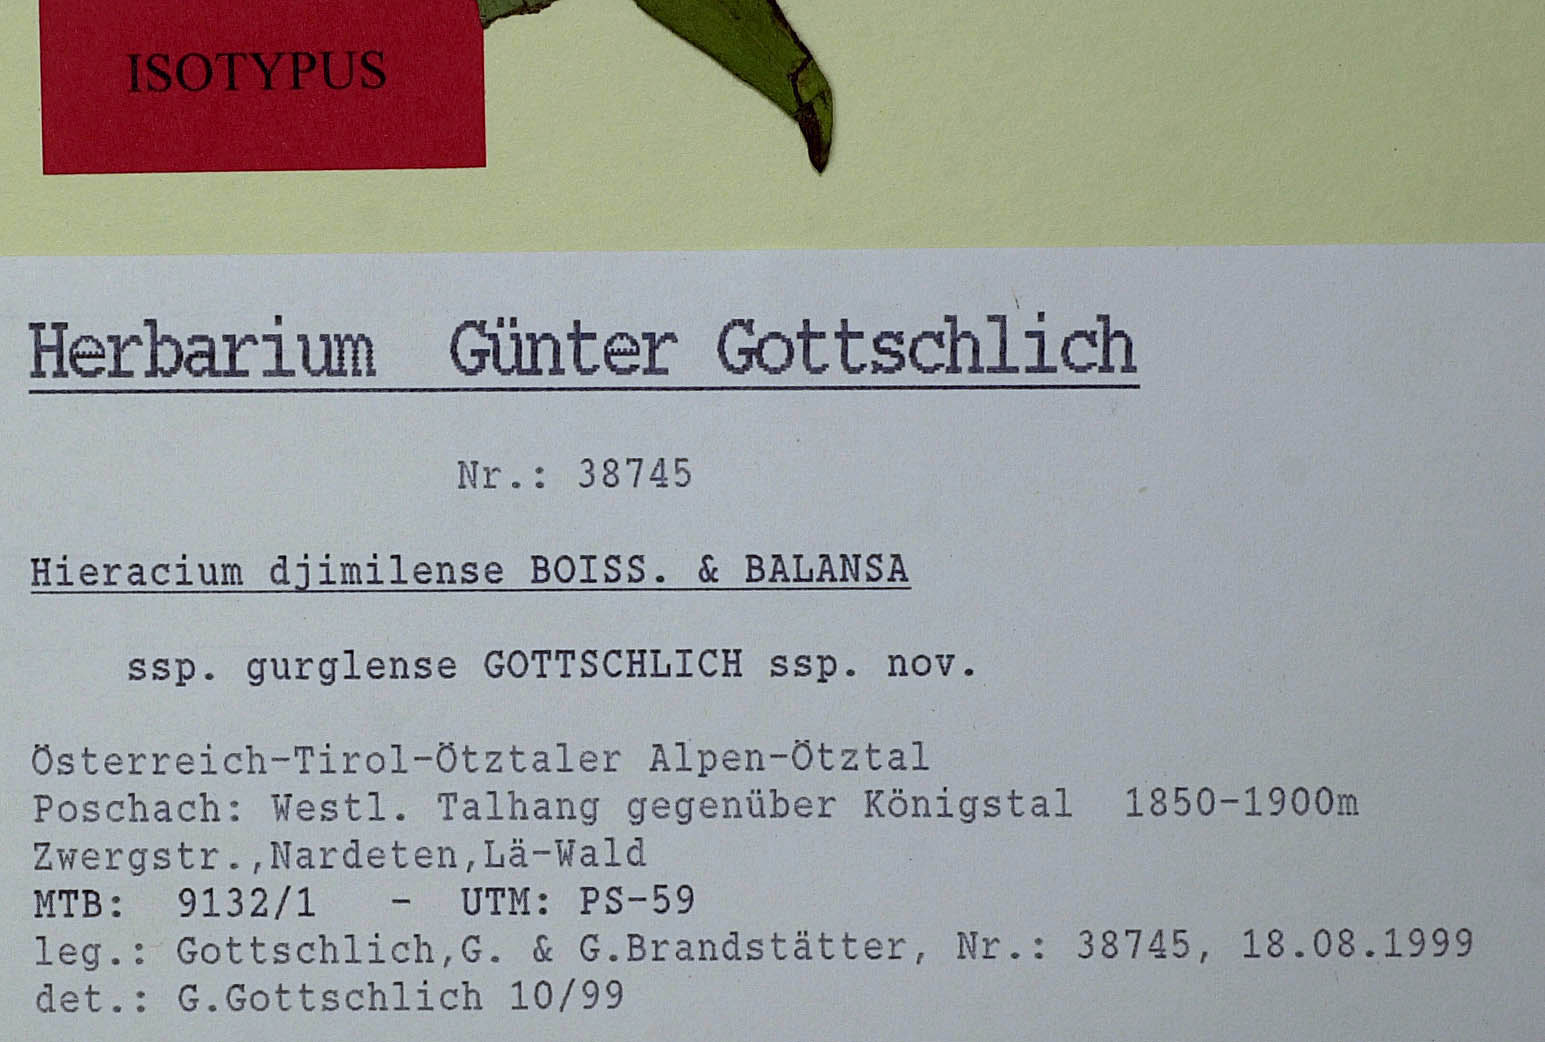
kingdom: Plantae
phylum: Tracheophyta
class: Magnoliopsida
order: Asterales
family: Asteraceae
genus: Hieracium
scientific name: Hieracium djimilense
